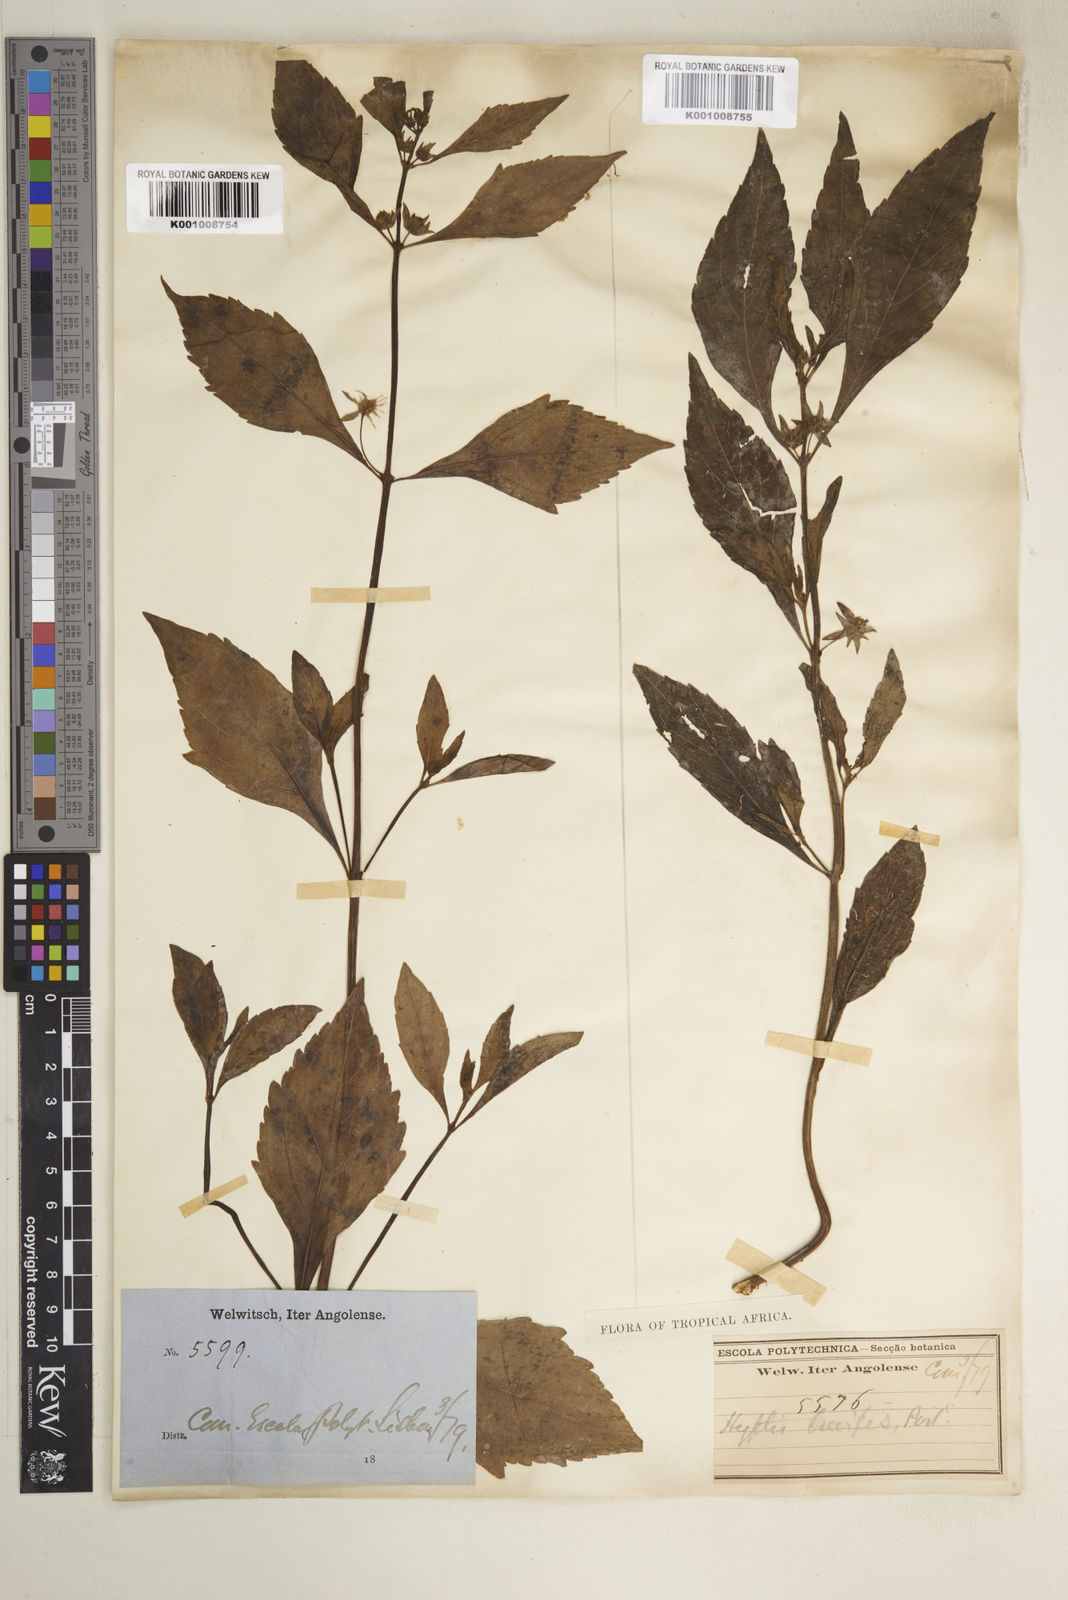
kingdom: Plantae
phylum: Tracheophyta
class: Magnoliopsida
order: Lamiales
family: Lamiaceae
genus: Hyptis
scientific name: Hyptis lanceolata
